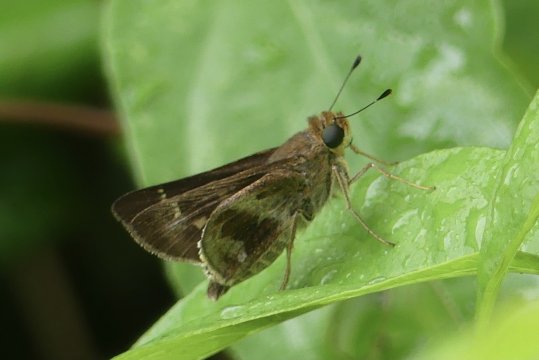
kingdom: Animalia
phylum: Arthropoda
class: Insecta
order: Lepidoptera
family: Hesperiidae
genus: Nyctelius
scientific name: Nyctelius nyctelius
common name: Violet-banded Skipper
